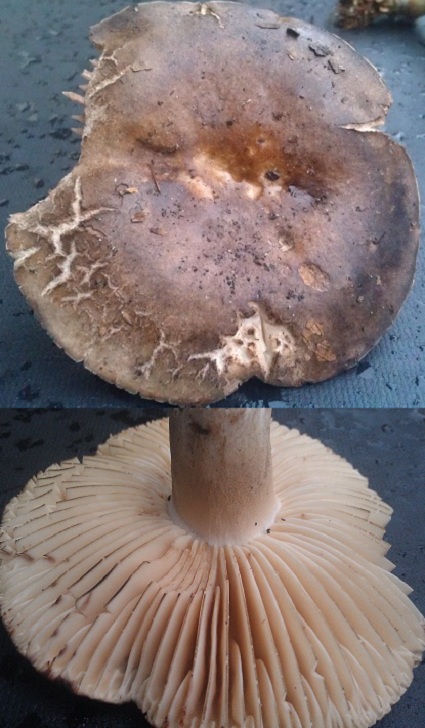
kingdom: Fungi
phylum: Basidiomycota
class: Agaricomycetes
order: Russulales
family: Russulaceae
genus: Russula
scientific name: Russula adusta
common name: sværtende skørhat
